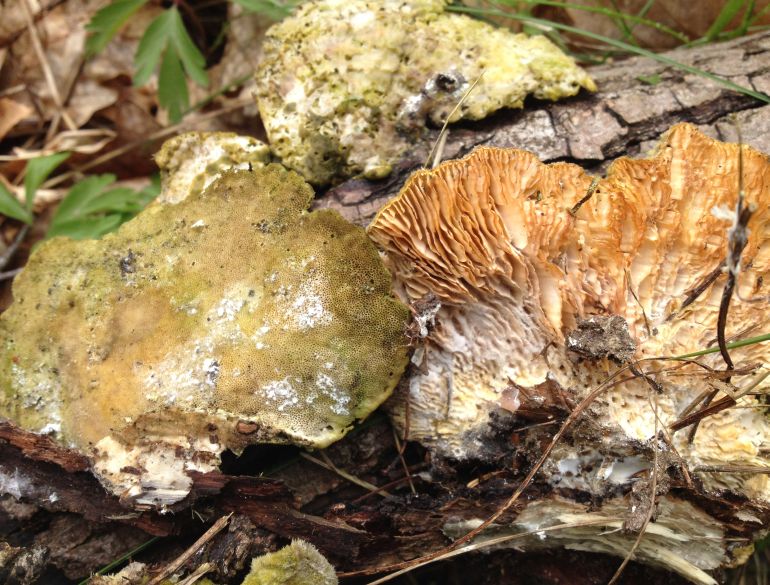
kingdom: Fungi
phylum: Basidiomycota
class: Agaricomycetes
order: Polyporales
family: Polyporaceae
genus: Lenzites
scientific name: Lenzites betulinus
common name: birke-læderporesvamp
